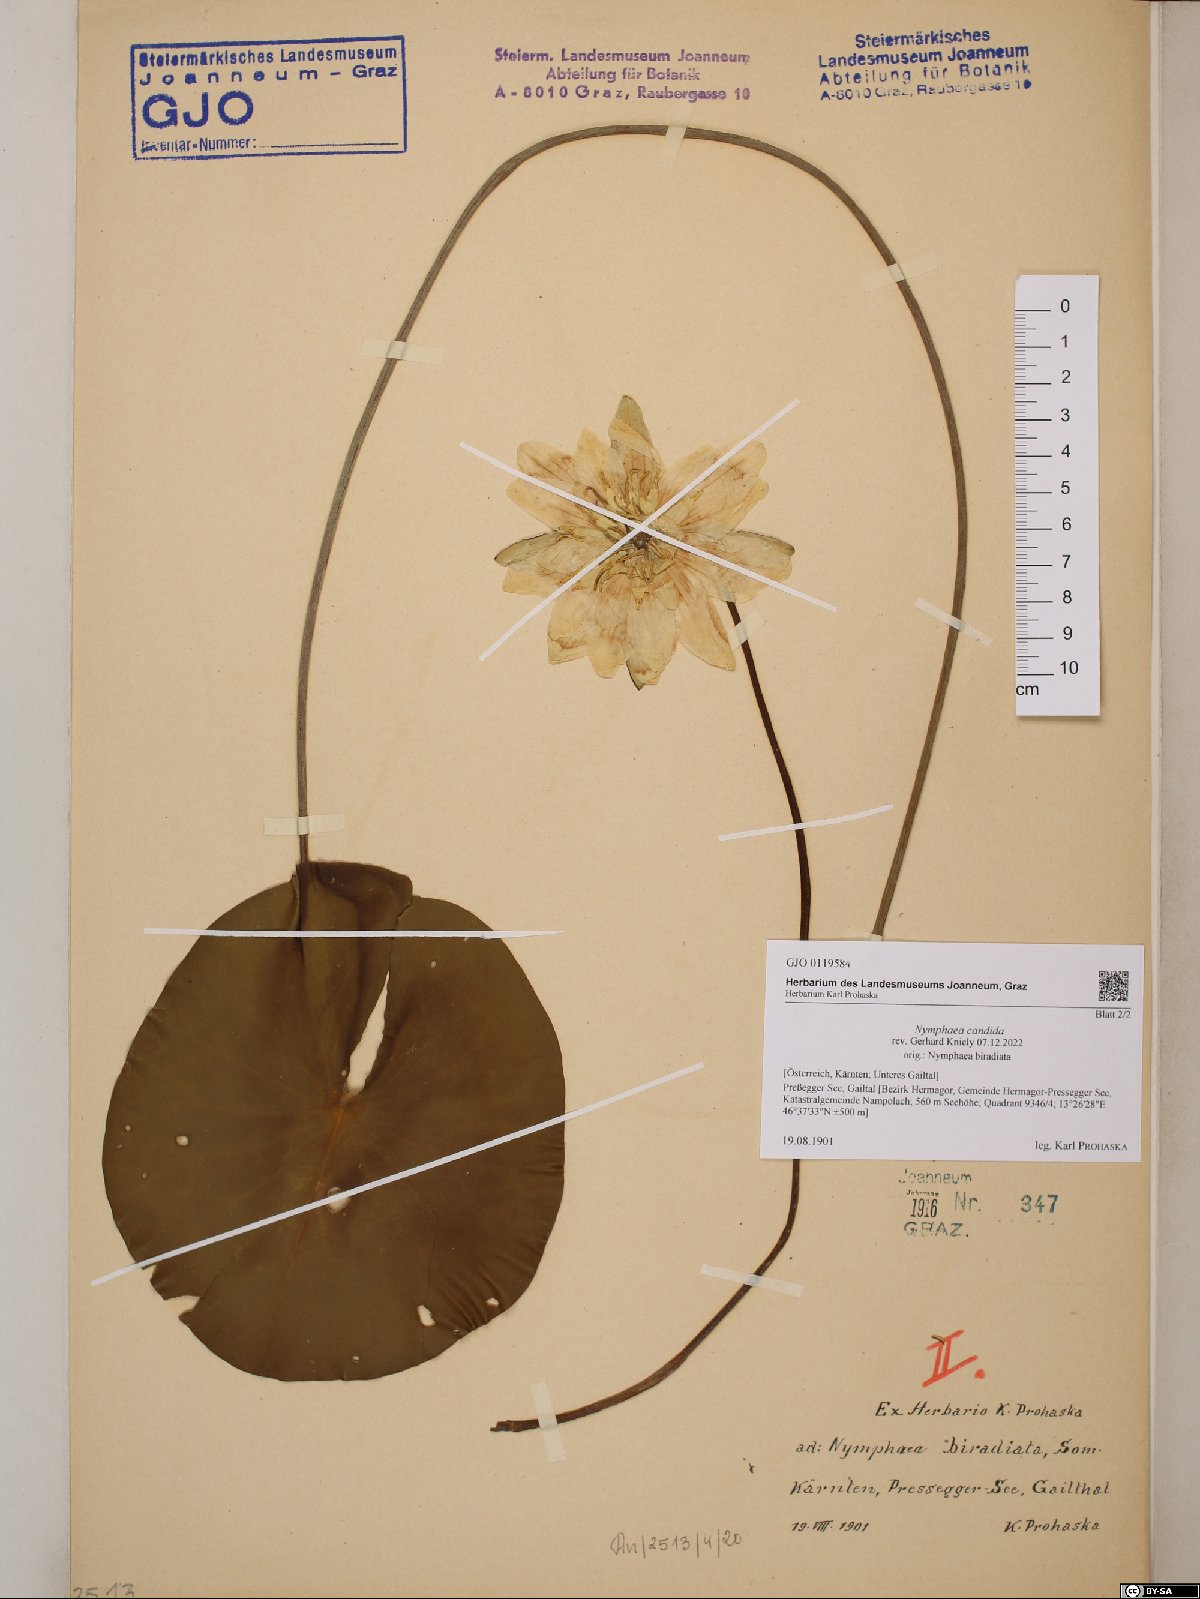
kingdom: Plantae
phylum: Tracheophyta
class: Magnoliopsida
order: Nymphaeales
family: Nymphaeaceae
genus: Nymphaea
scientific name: Nymphaea candida
